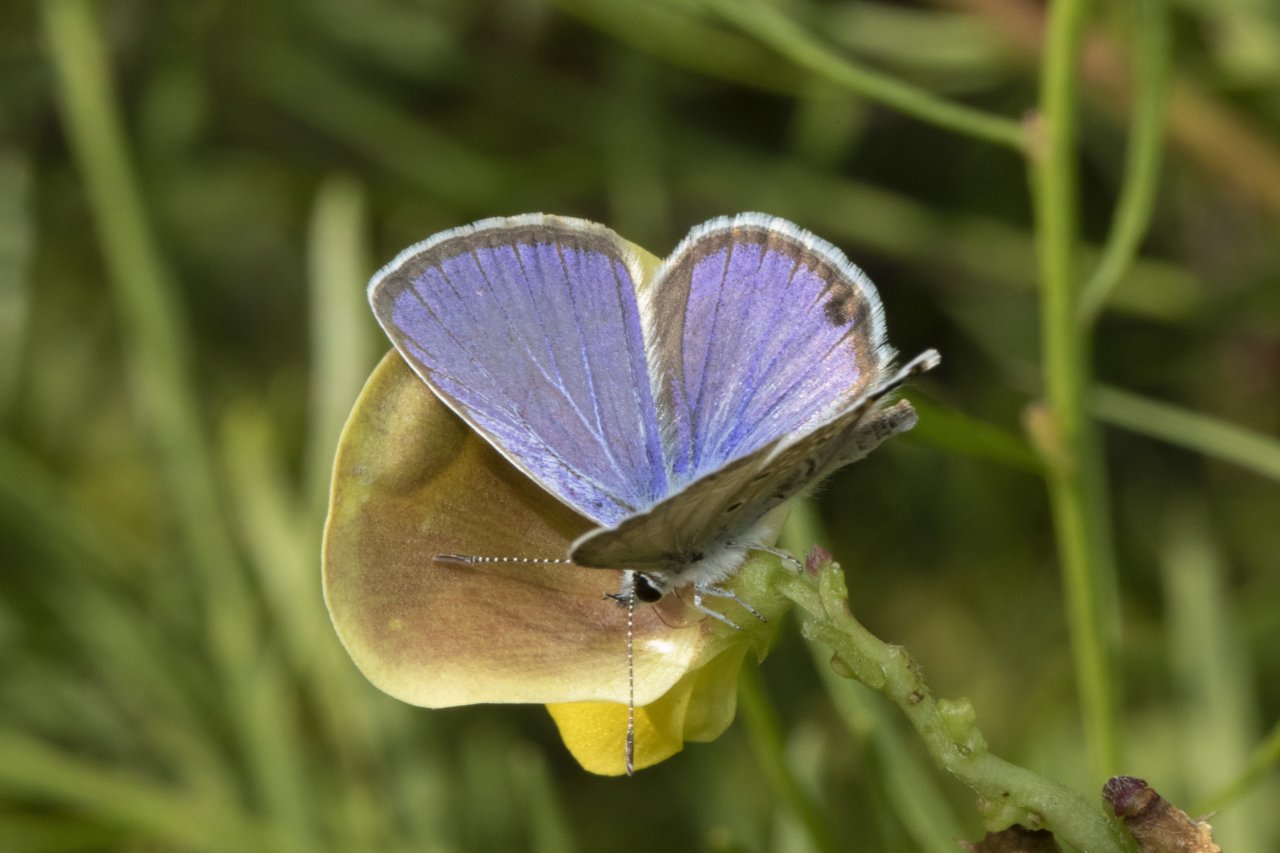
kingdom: Animalia
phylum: Arthropoda
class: Insecta
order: Lepidoptera
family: Lycaenidae
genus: Hemiargus
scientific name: Hemiargus ceraunus
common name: Ceraunus Blue
